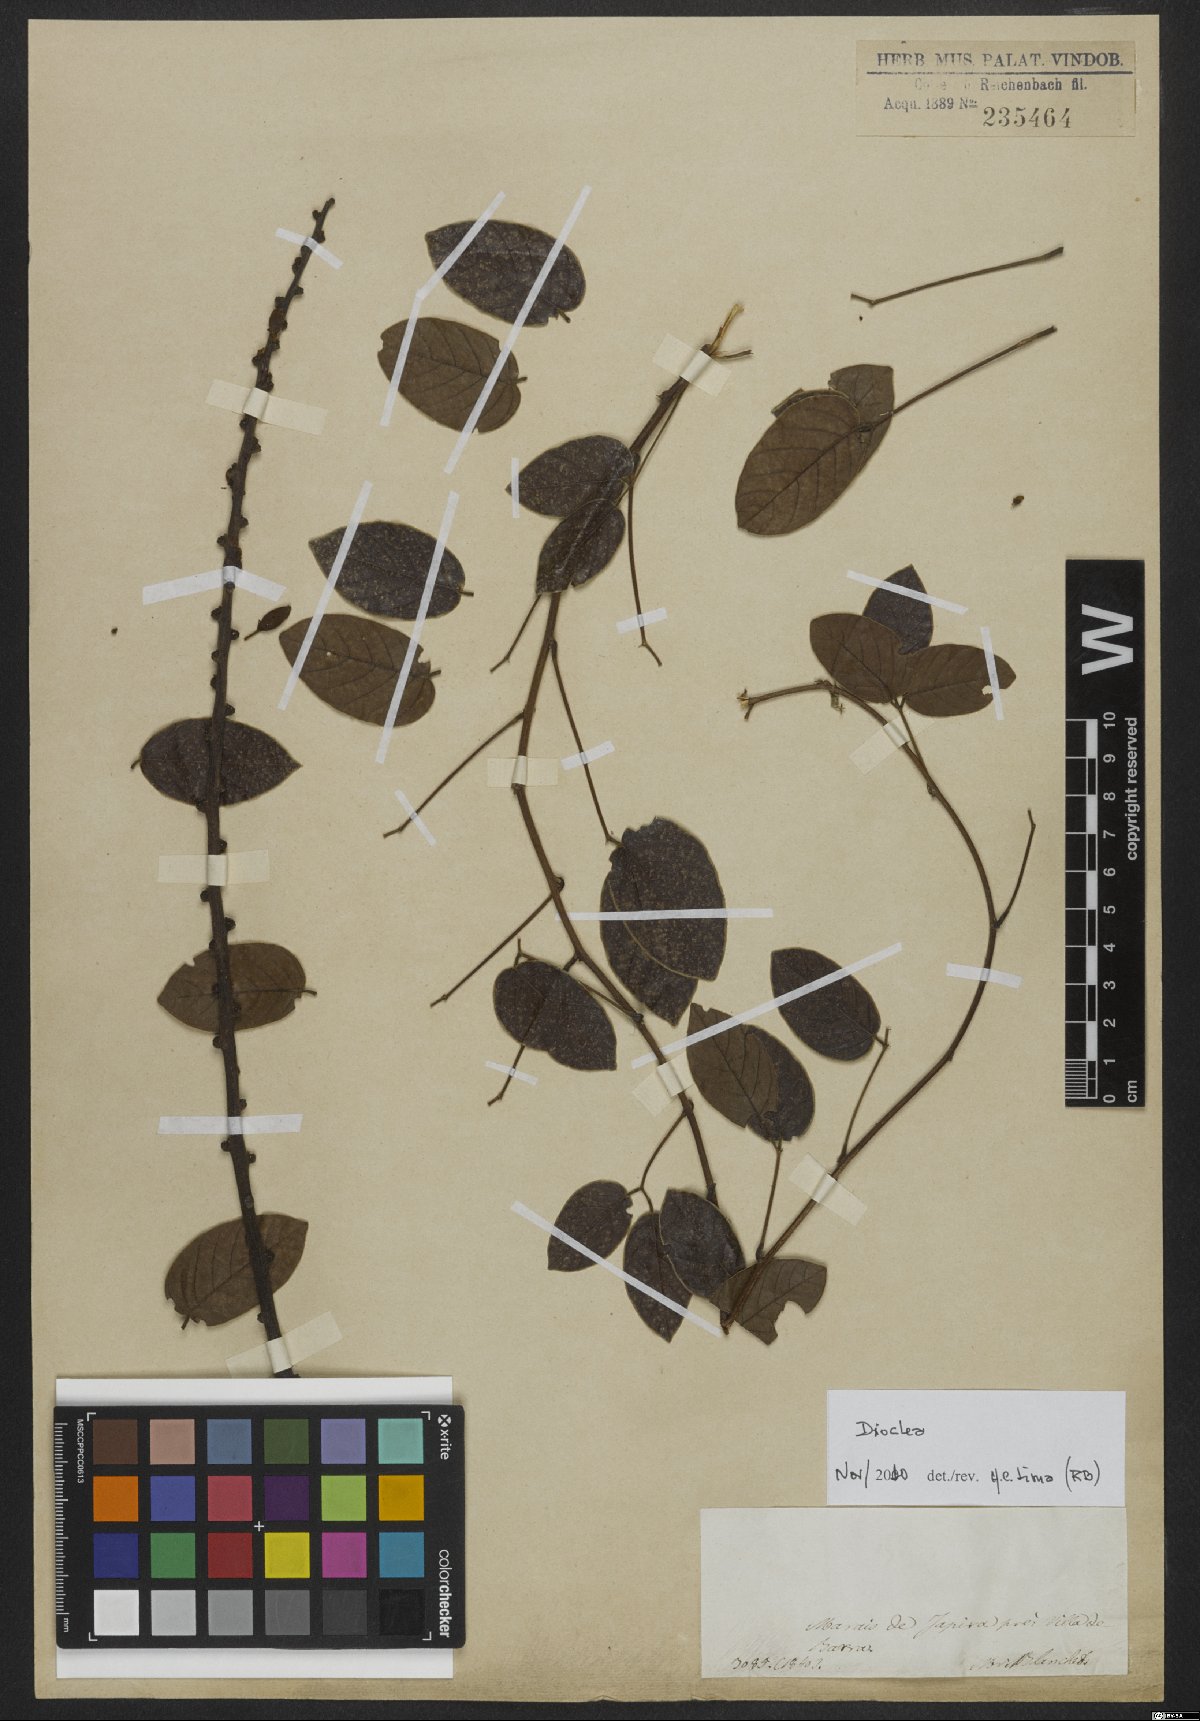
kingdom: Plantae
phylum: Tracheophyta
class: Magnoliopsida
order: Fabales
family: Fabaceae
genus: Dioclea
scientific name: Dioclea
